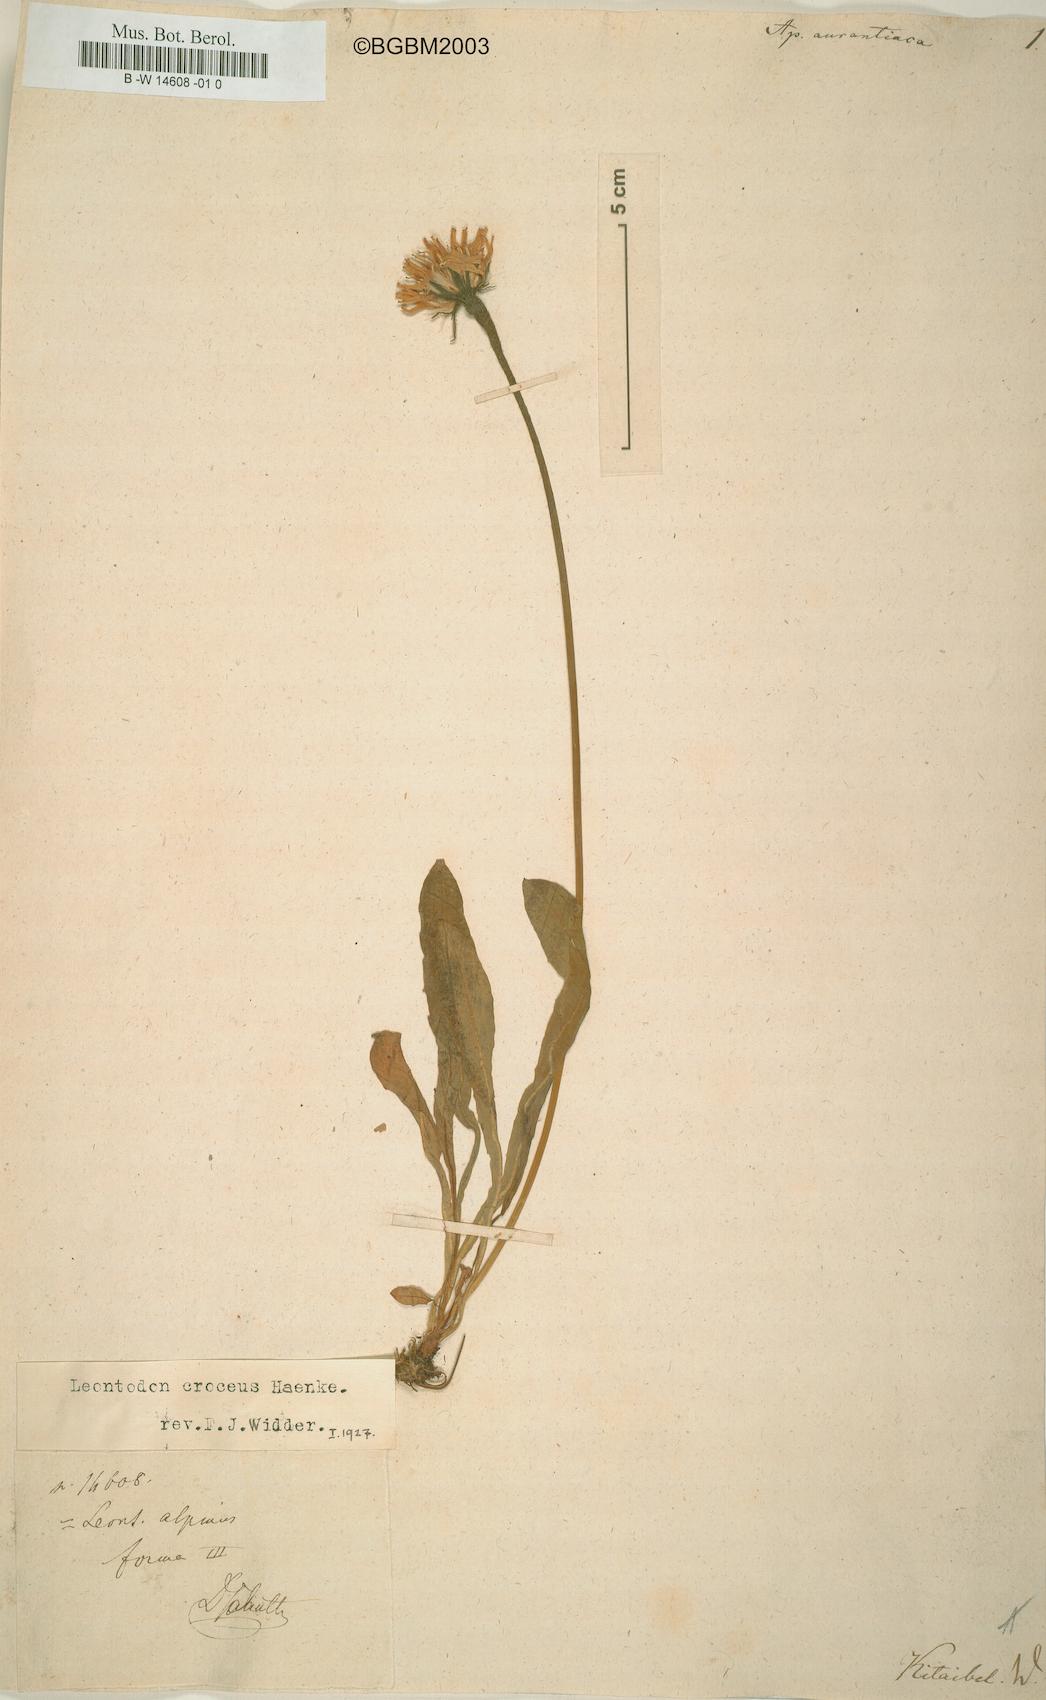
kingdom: Plantae
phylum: Tracheophyta
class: Magnoliopsida
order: Asterales
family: Asteraceae
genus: Scorzoneroides
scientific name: Scorzoneroides pyrenaica
